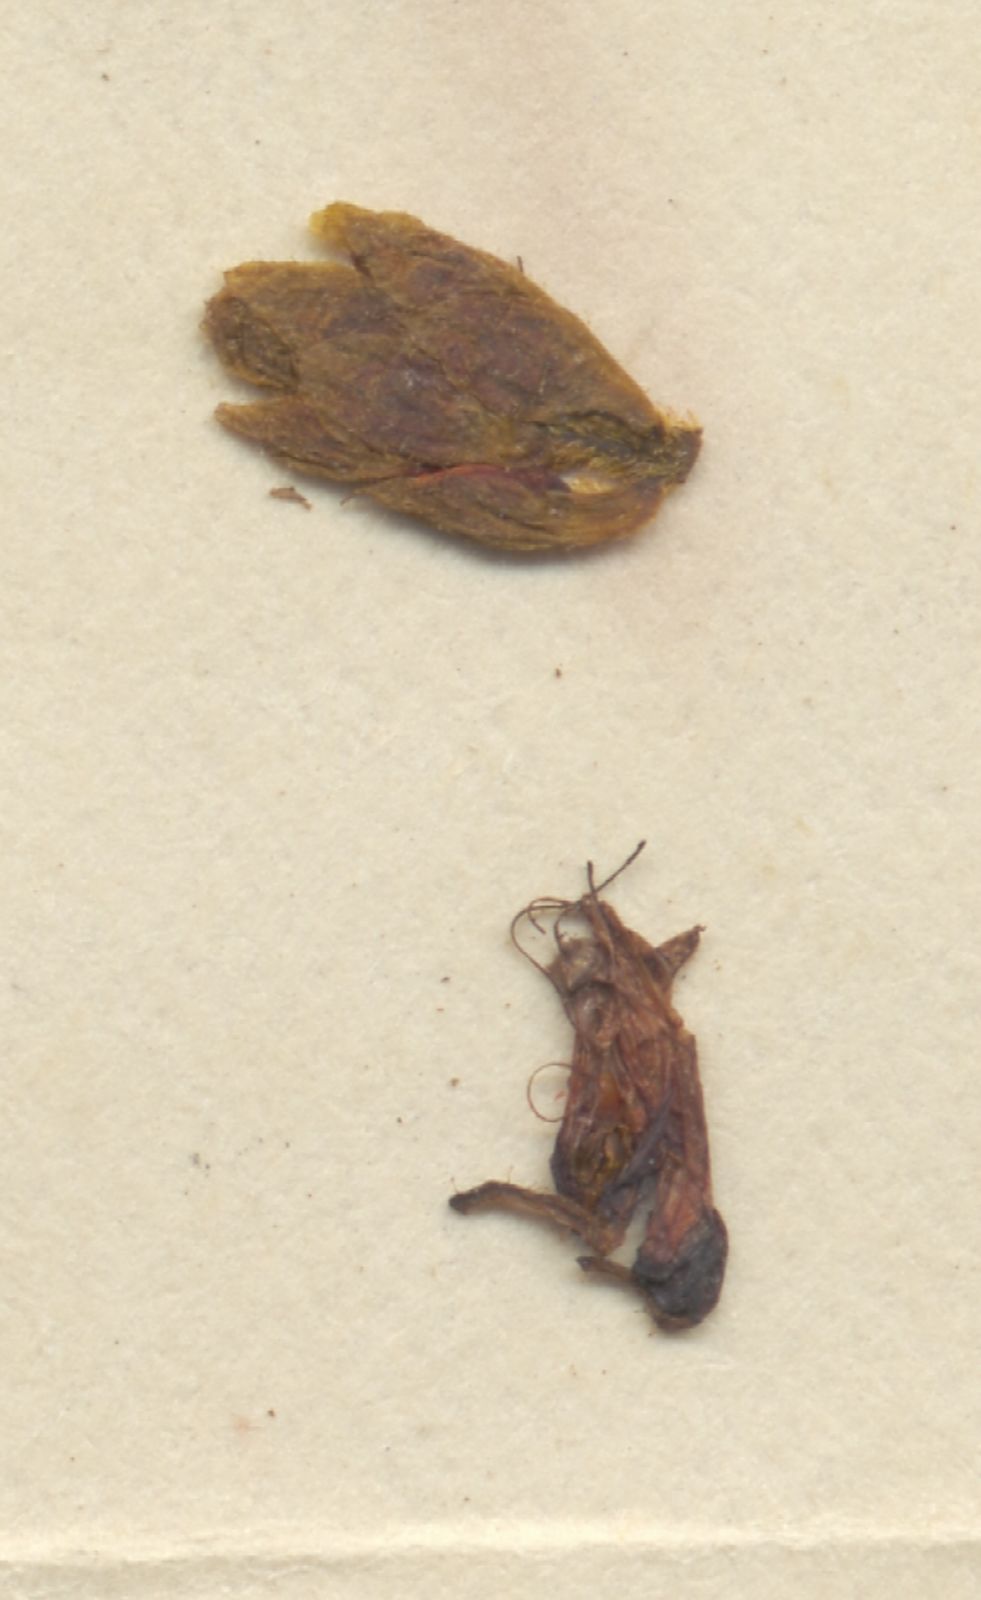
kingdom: Plantae
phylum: Tracheophyta
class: Liliopsida
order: Commelinales
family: Haemodoraceae
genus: Barberetta
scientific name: Barberetta aurea
